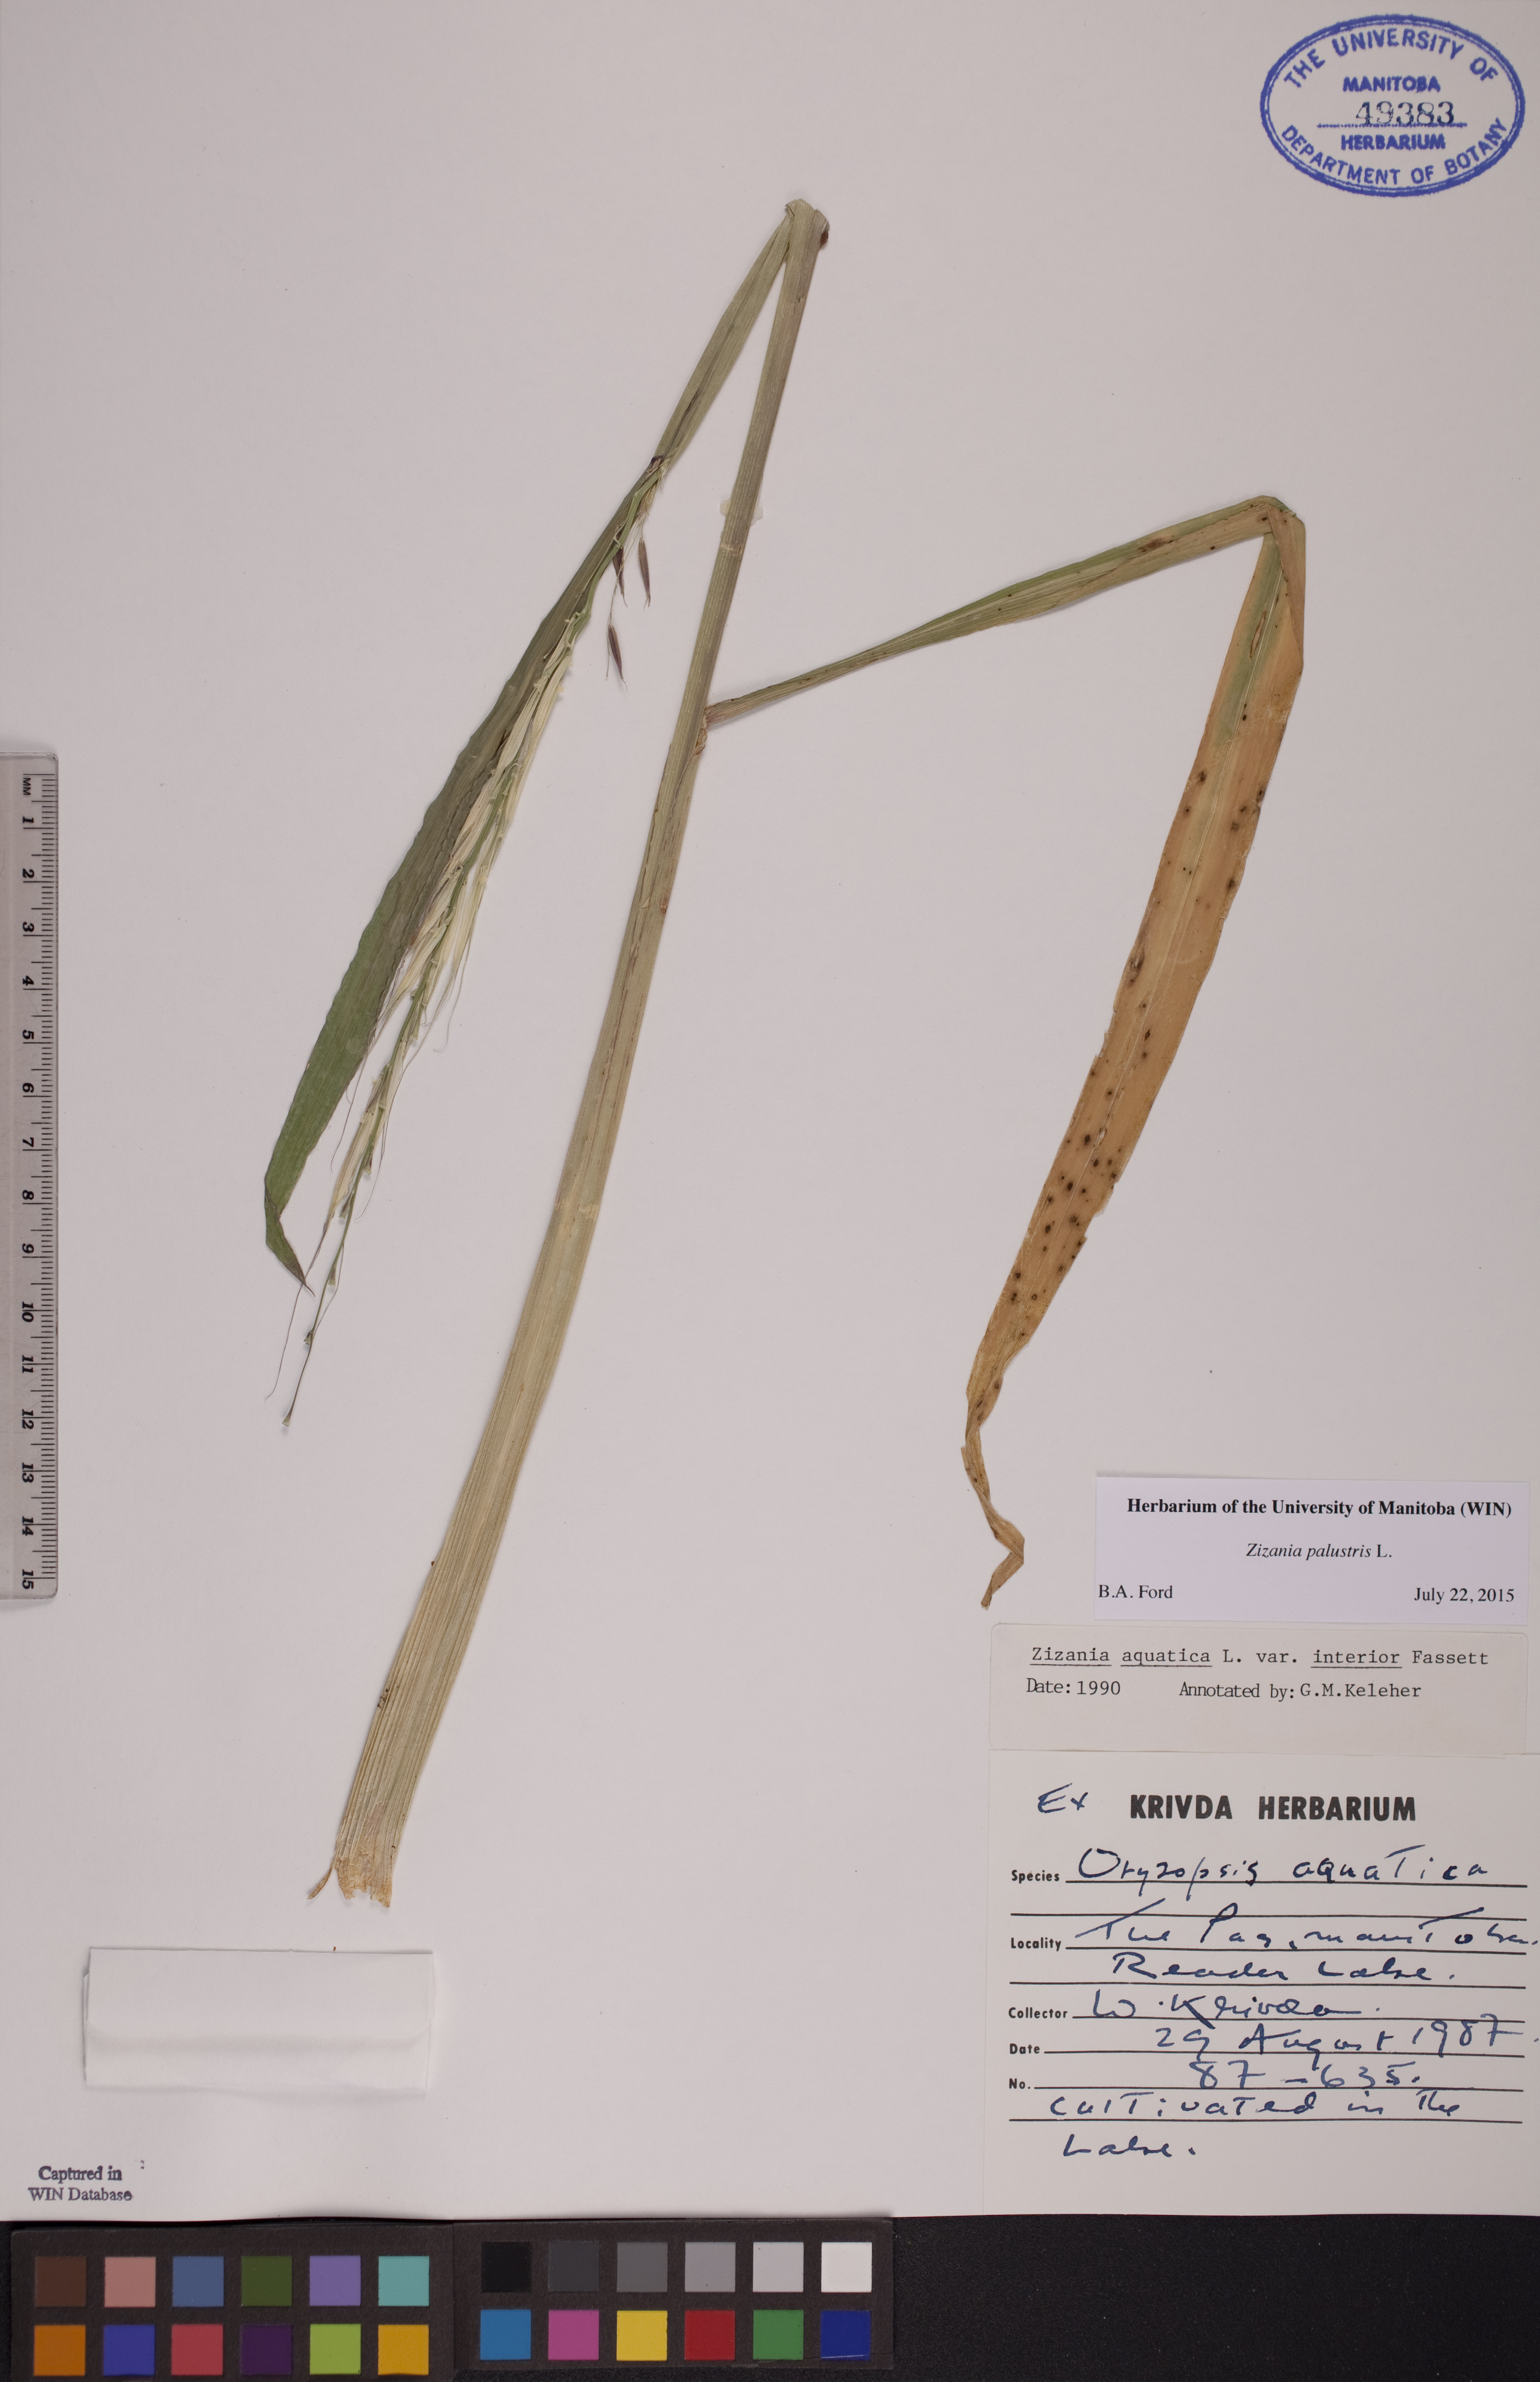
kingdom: Plantae
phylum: Tracheophyta
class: Liliopsida
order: Poales
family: Poaceae
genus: Zizania
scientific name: Zizania palustris
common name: Northern wild rice
